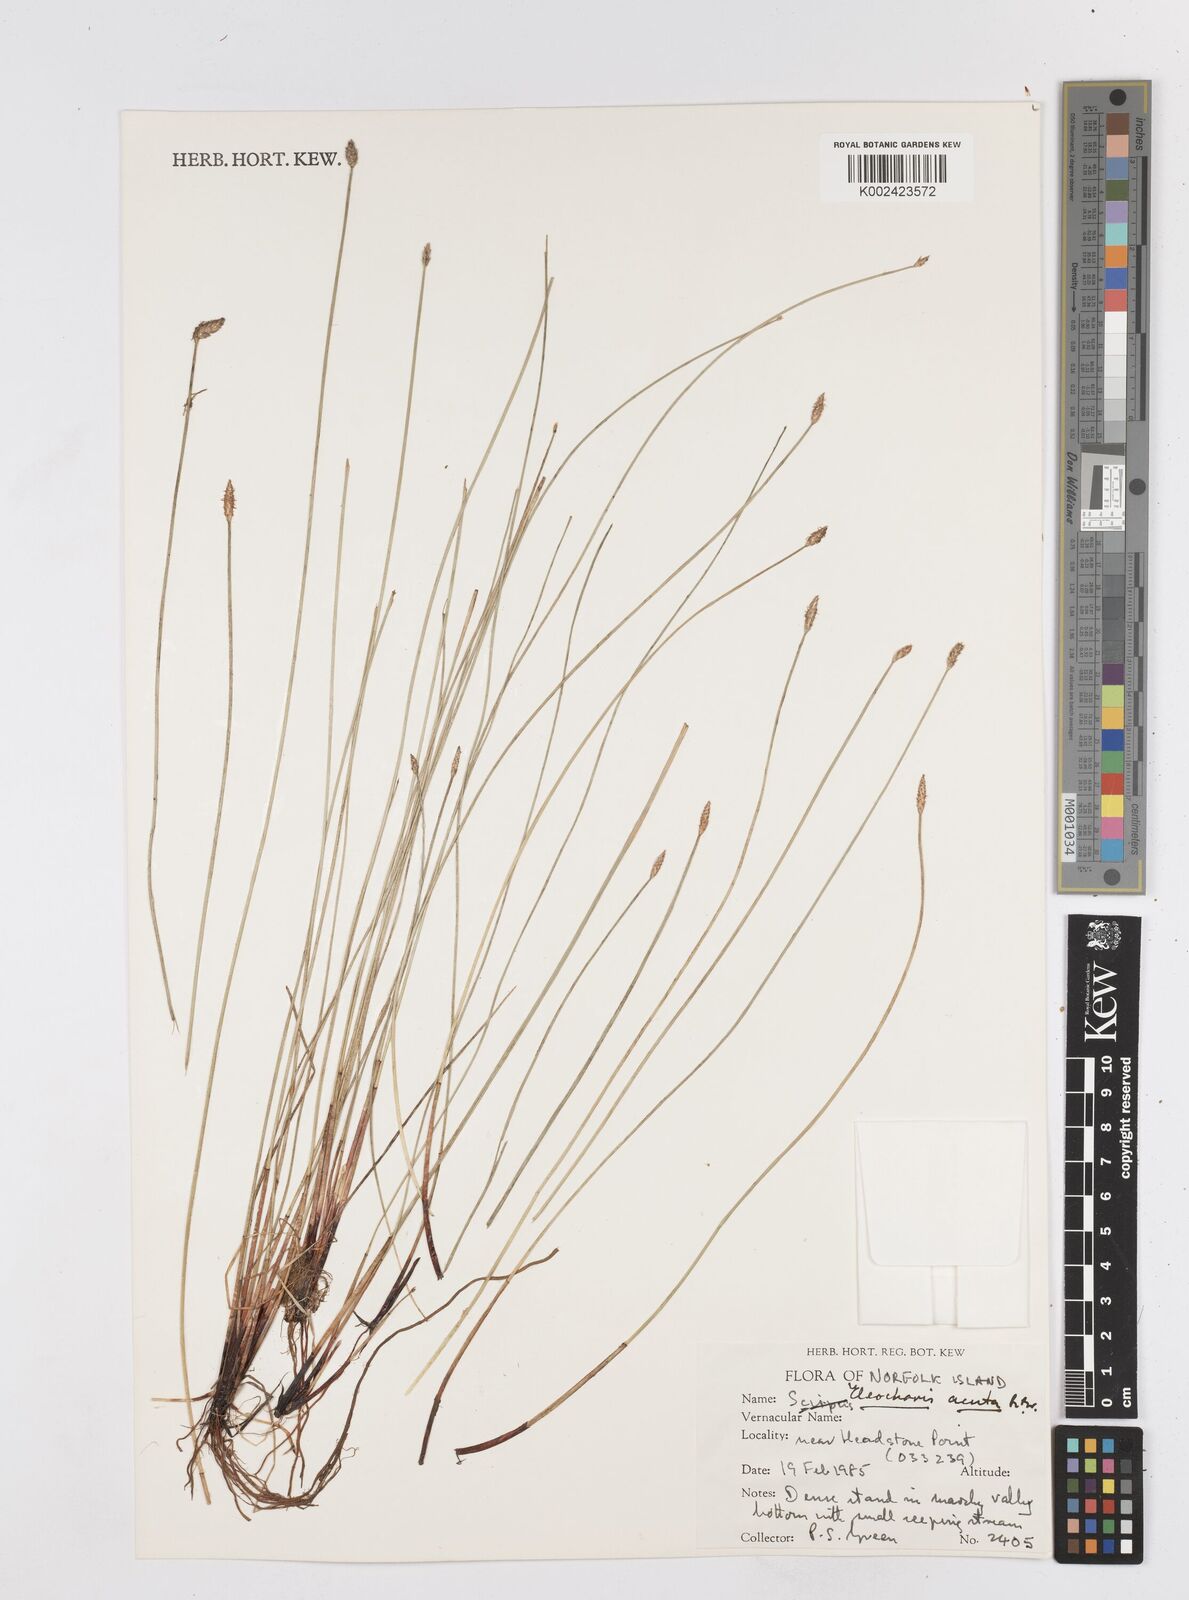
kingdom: Plantae
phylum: Tracheophyta
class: Liliopsida
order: Poales
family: Cyperaceae
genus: Eleocharis
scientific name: Eleocharis acuta
